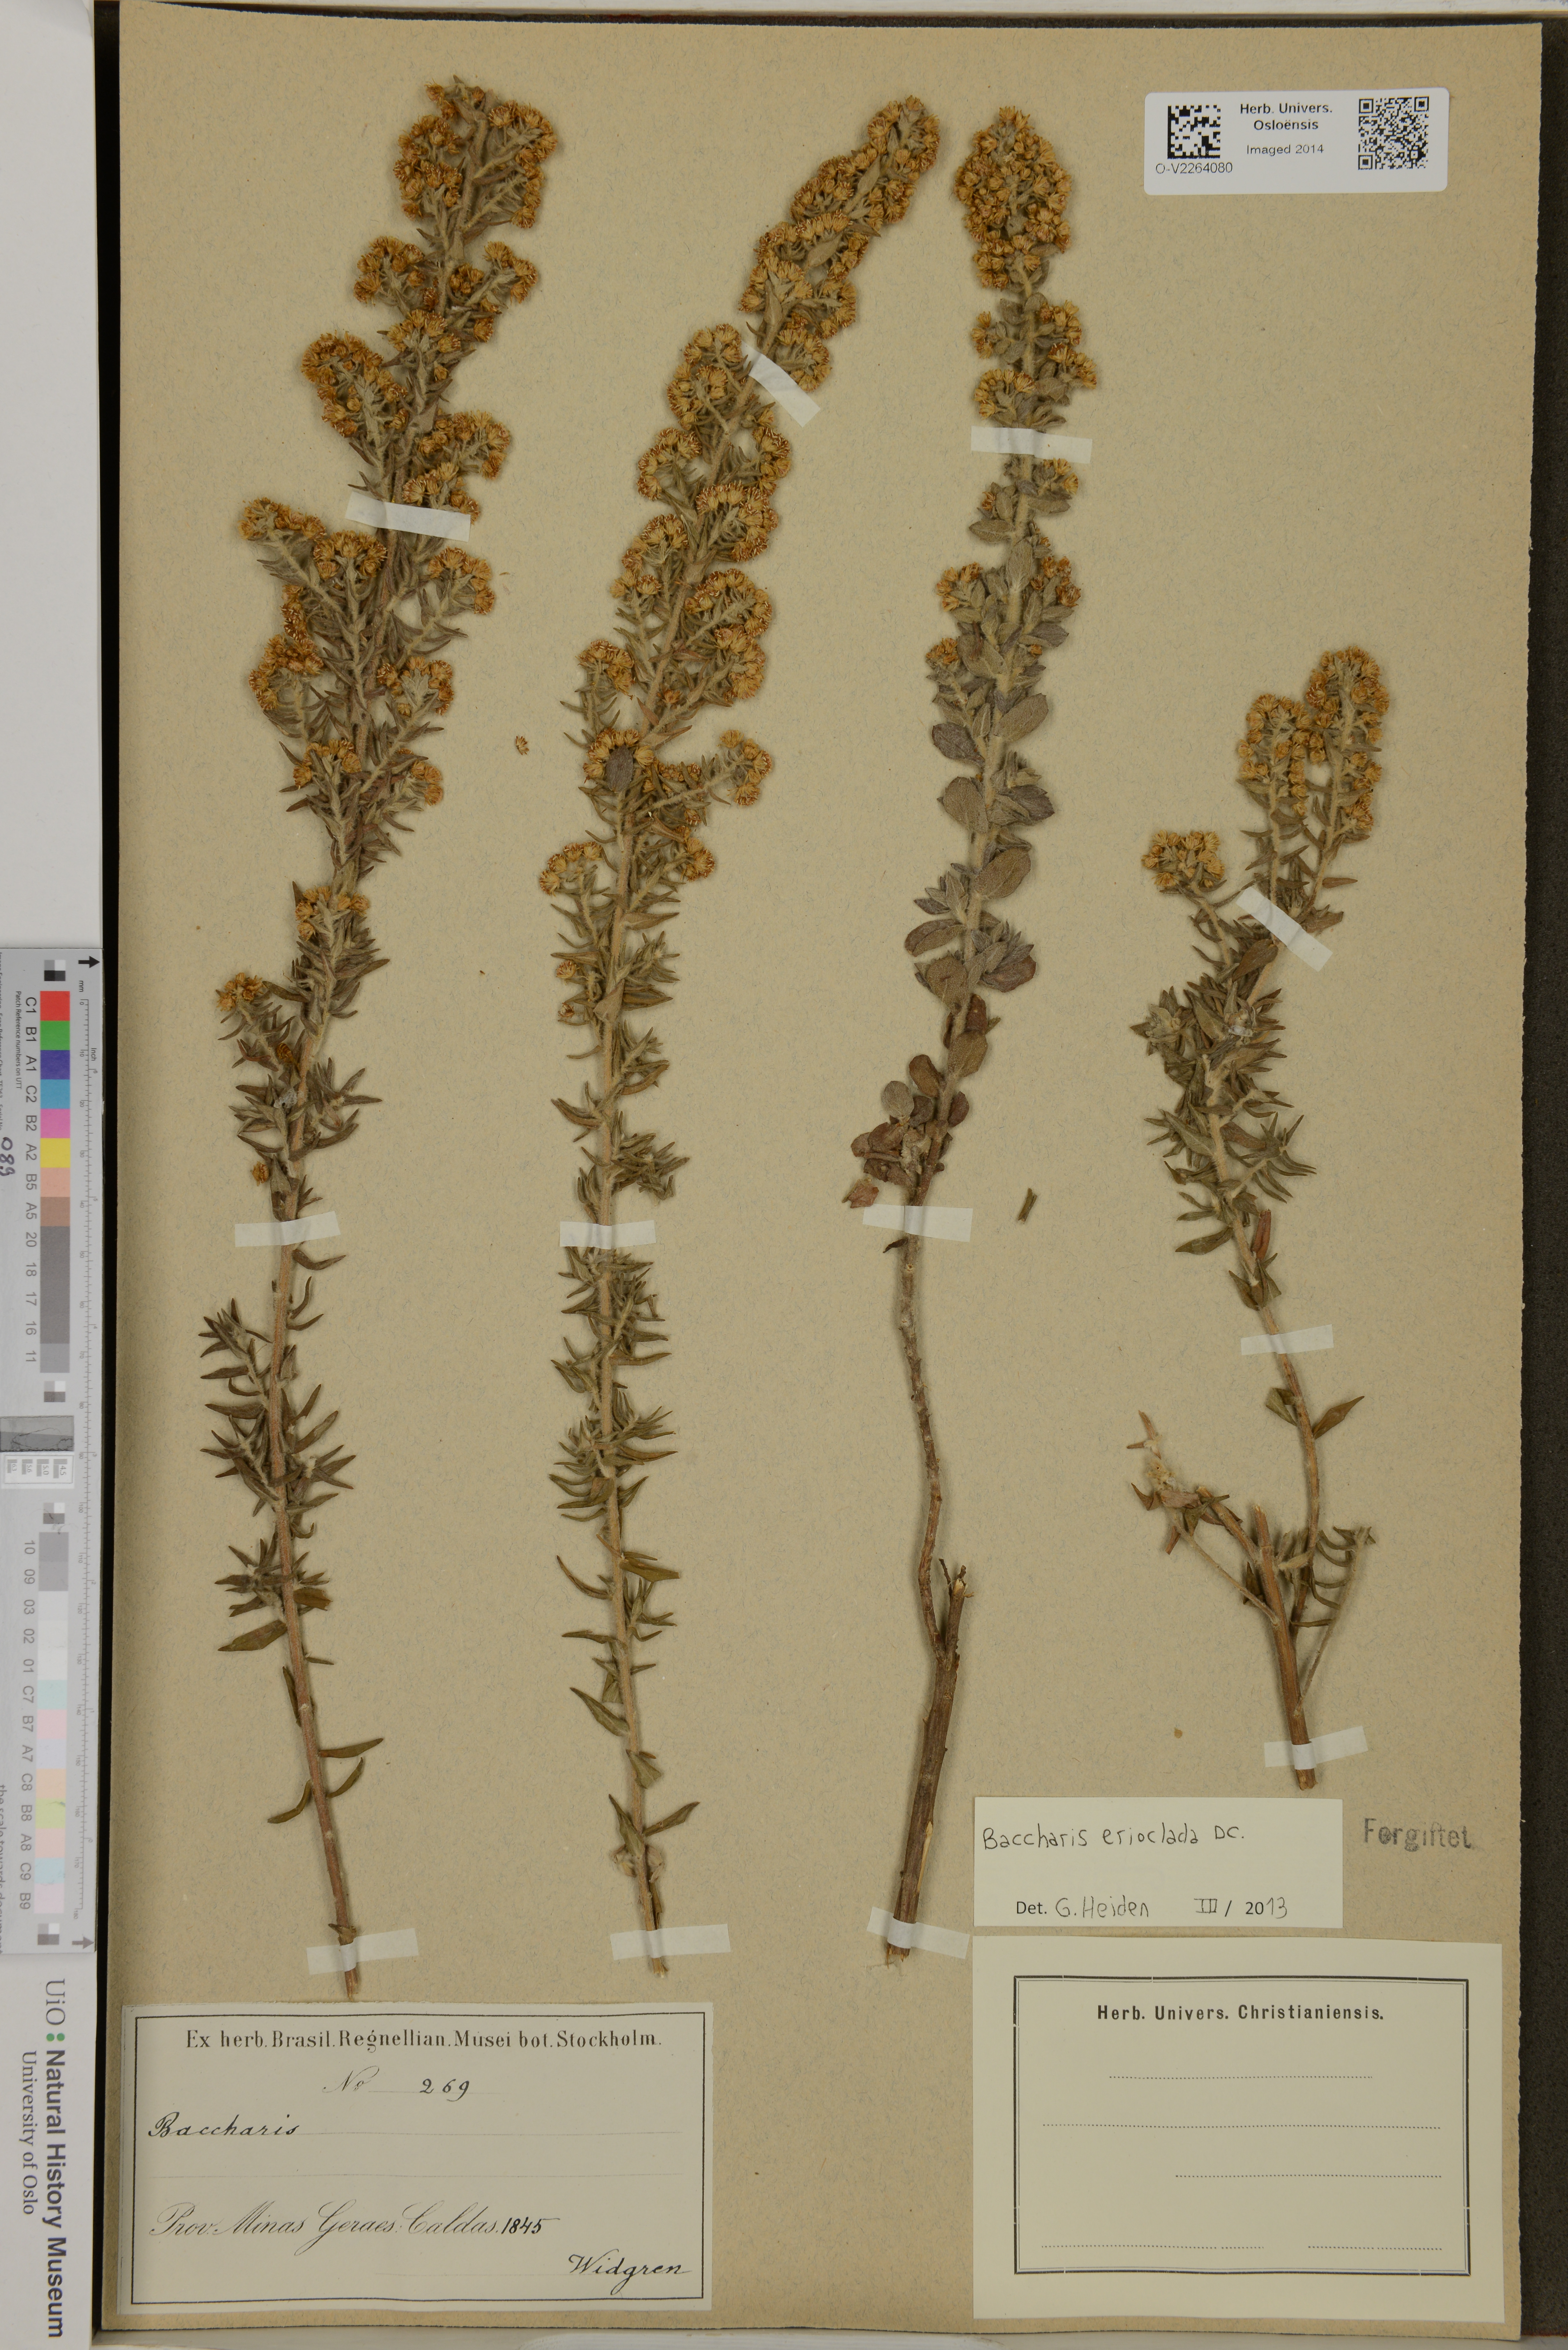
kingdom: Plantae
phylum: Tracheophyta
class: Magnoliopsida
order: Asterales
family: Asteraceae
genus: Baccharis
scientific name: Baccharis erioclada
